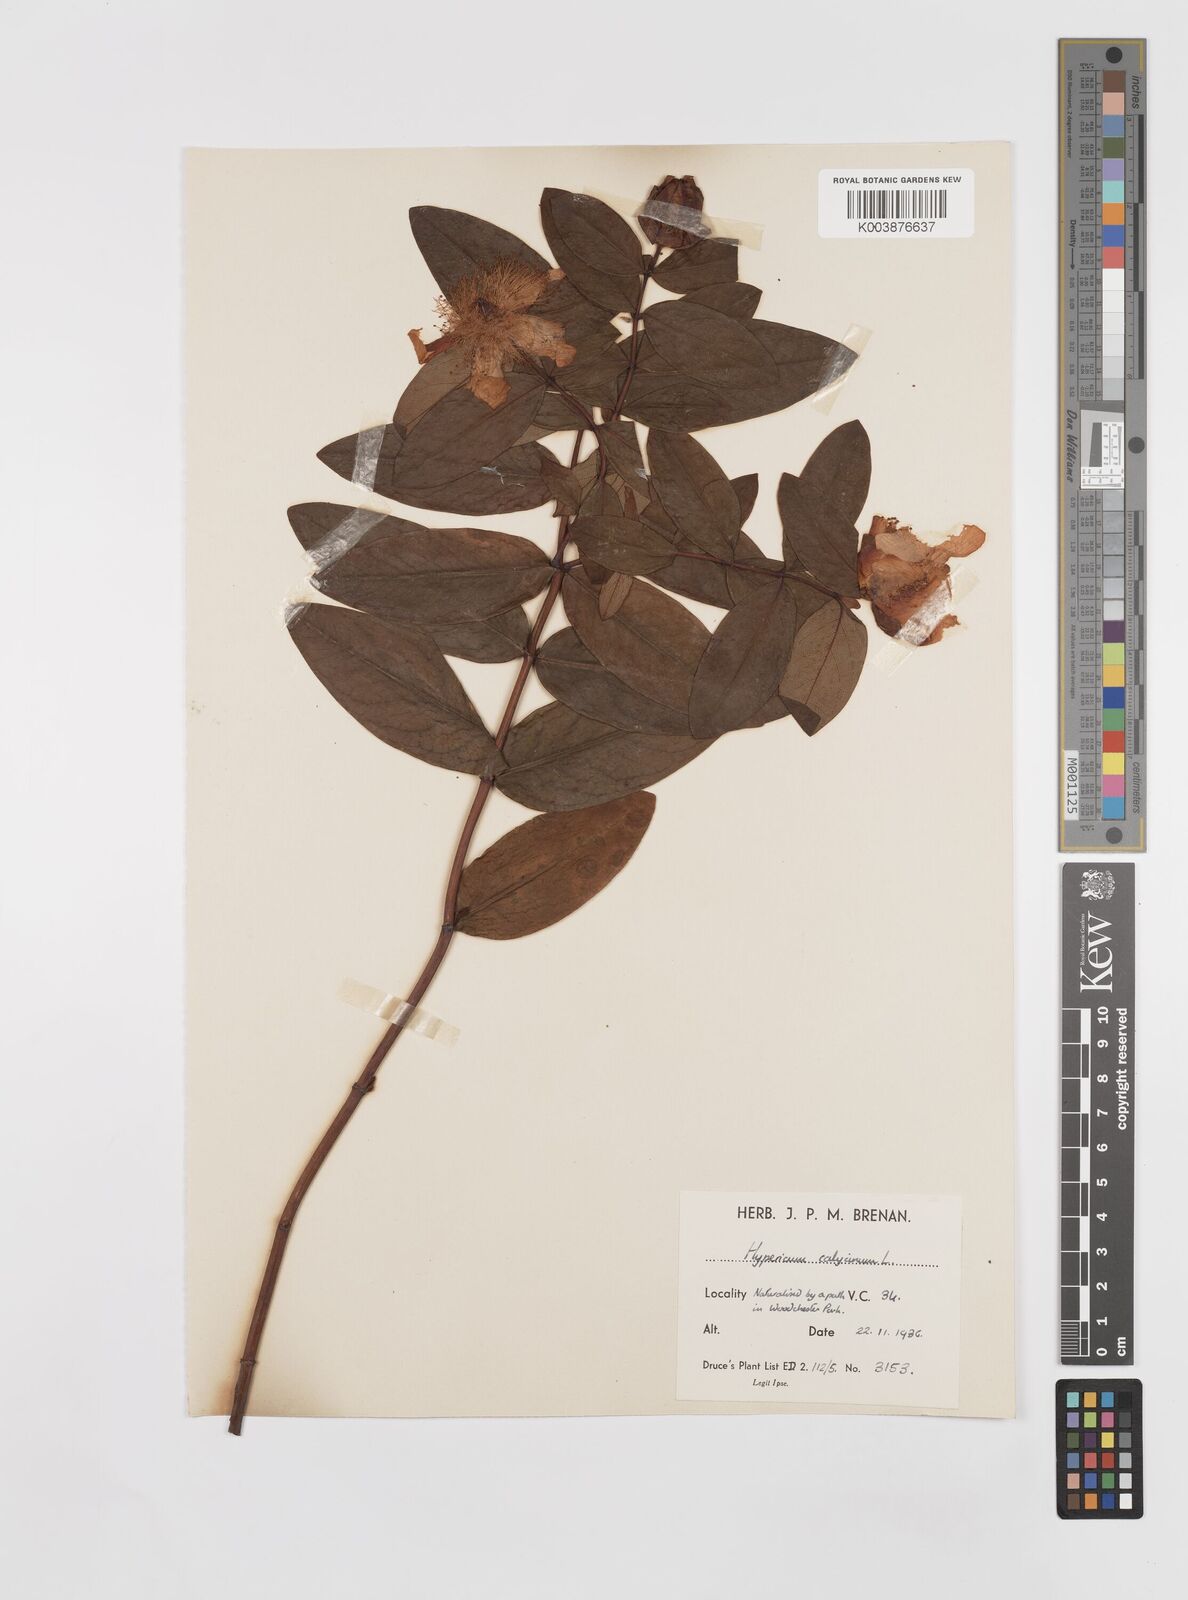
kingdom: Plantae
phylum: Tracheophyta
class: Magnoliopsida
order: Malpighiales
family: Hypericaceae
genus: Hypericum
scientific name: Hypericum calycinum
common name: Rose-of-sharon
